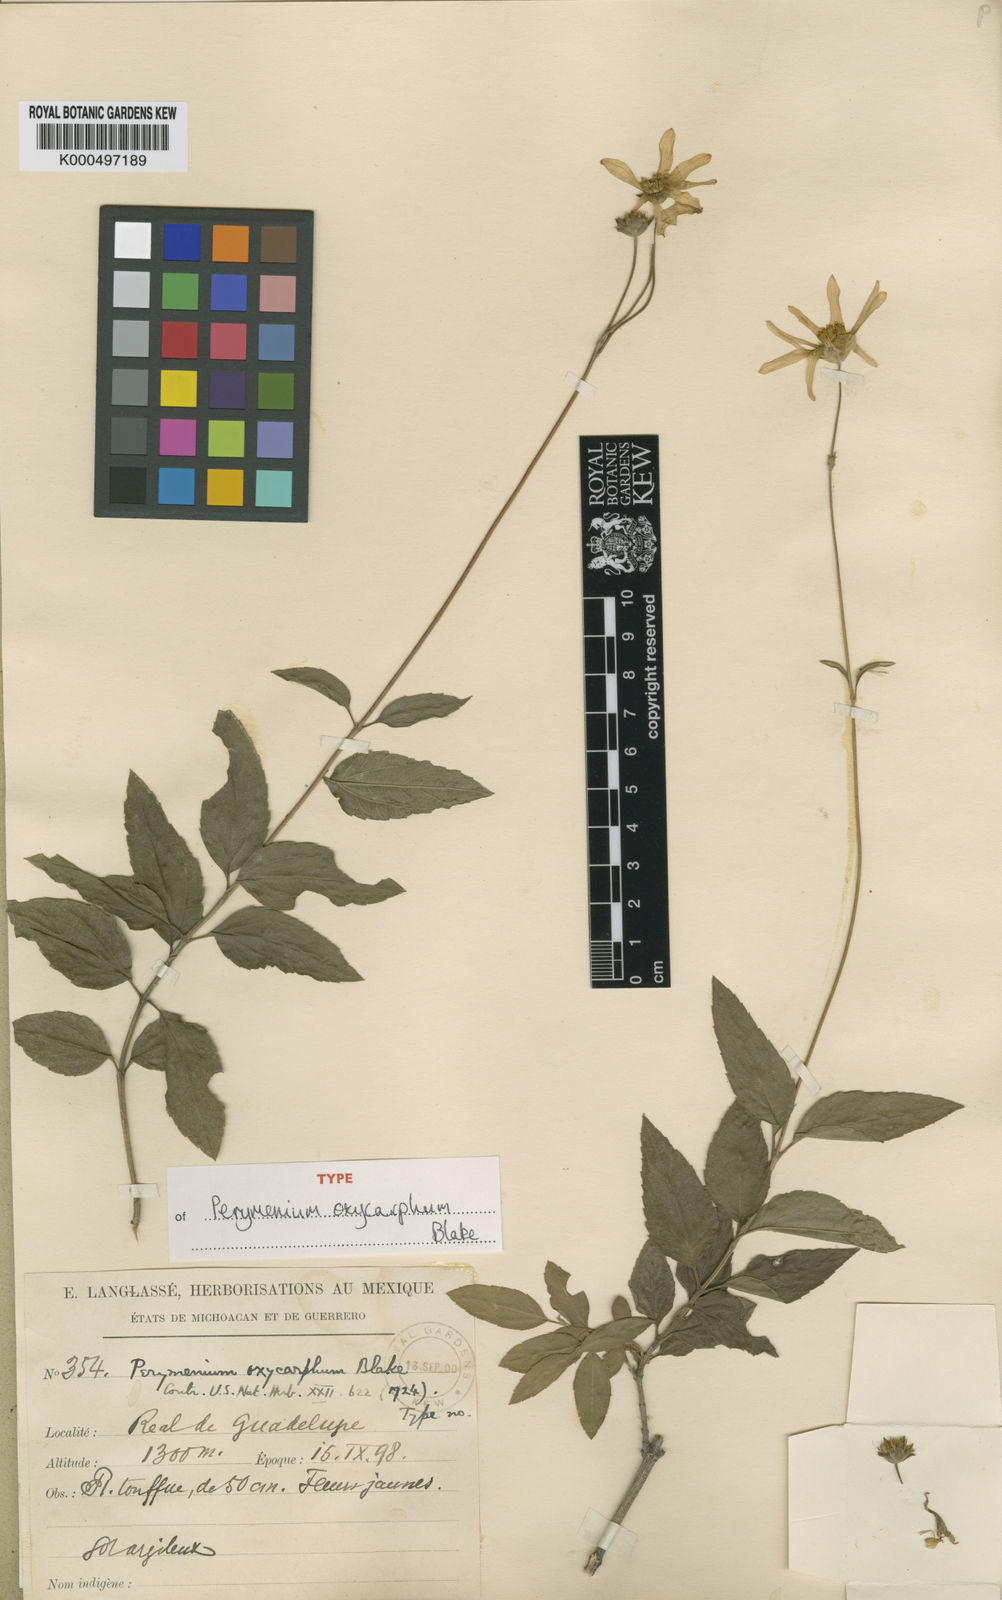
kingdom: Plantae
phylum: Tracheophyta
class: Magnoliopsida
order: Asterales
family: Asteraceae
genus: Perymenium
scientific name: Perymenium oxycarphum
